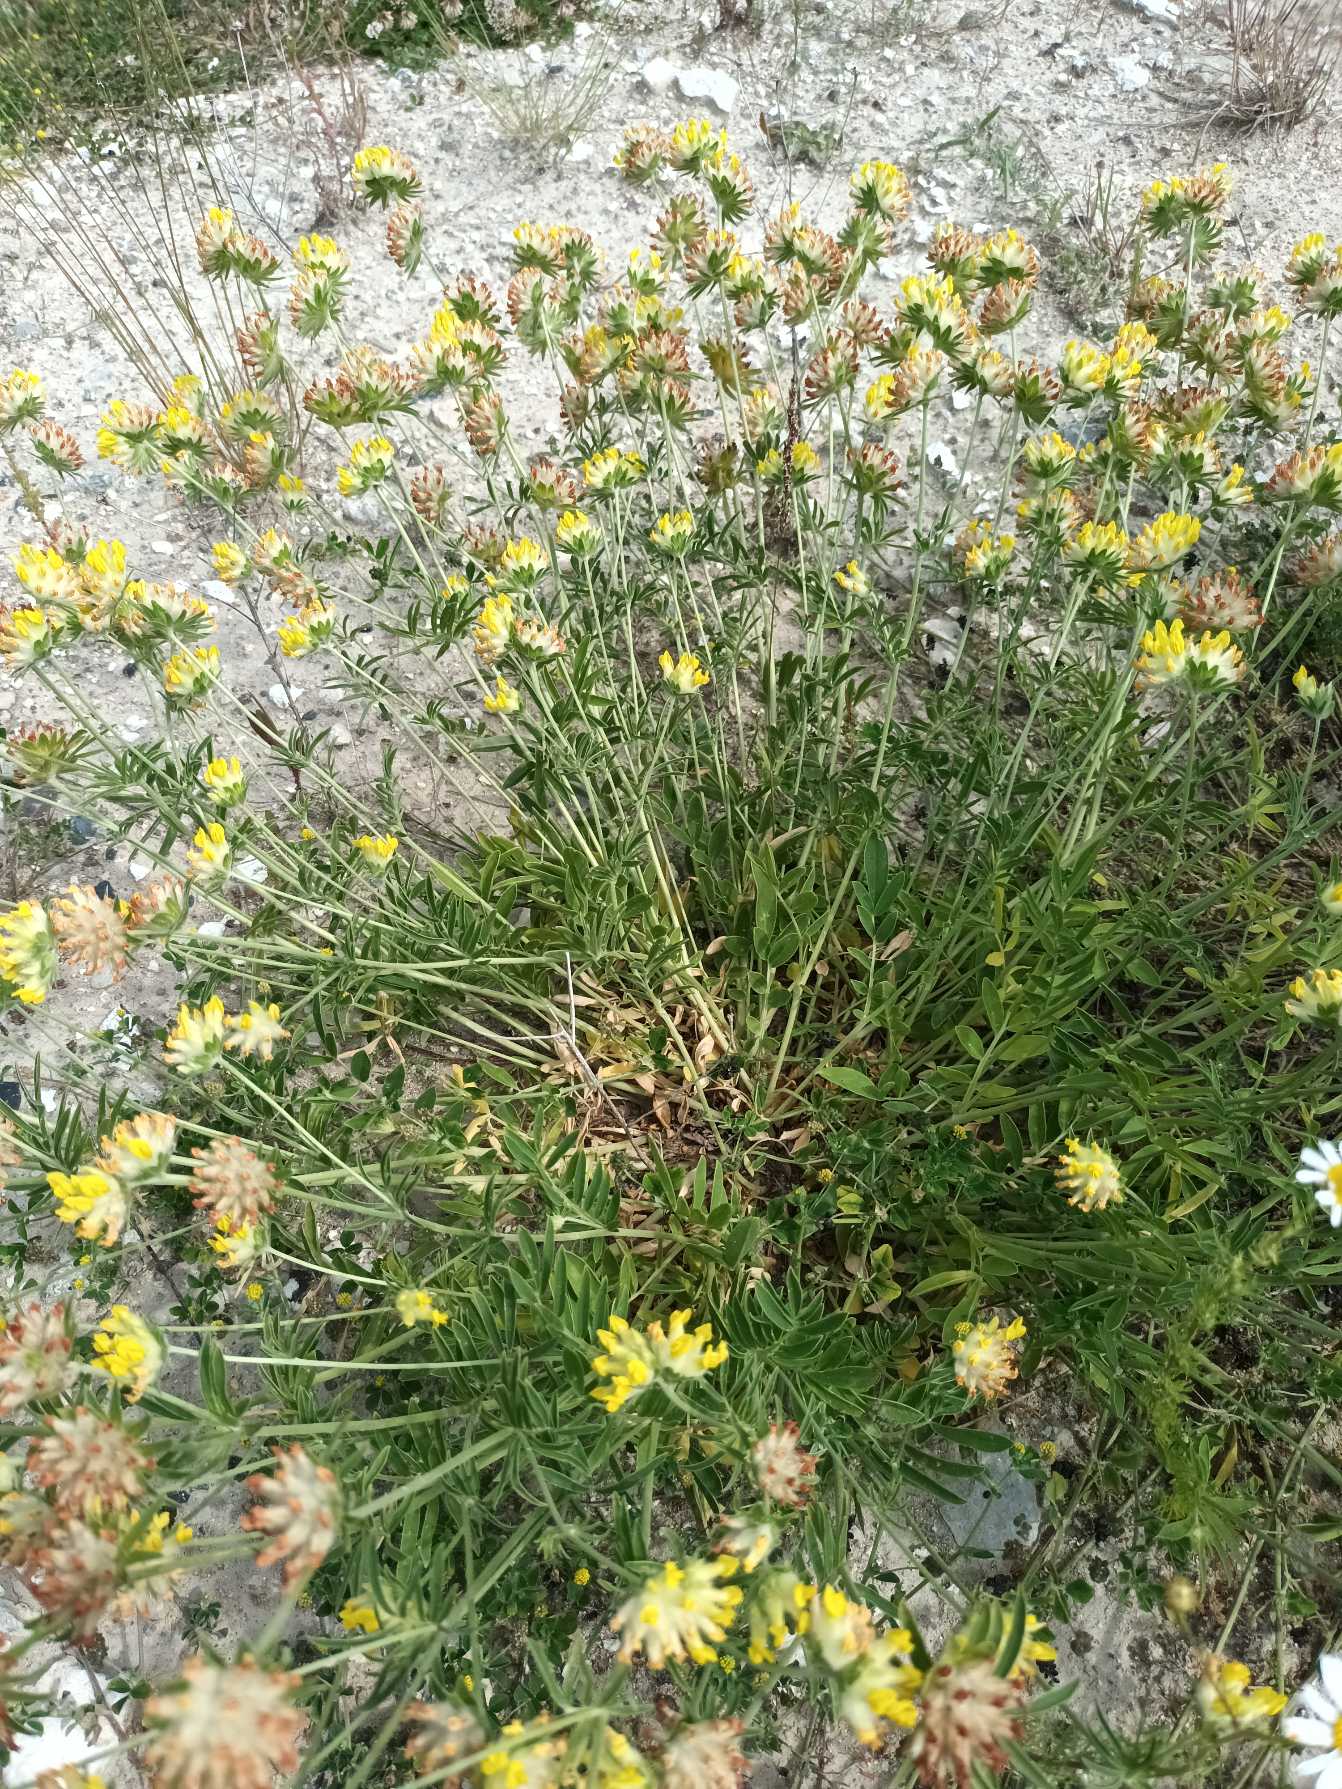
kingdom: Plantae
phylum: Tracheophyta
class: Magnoliopsida
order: Fabales
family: Fabaceae
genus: Anthyllis
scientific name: Anthyllis vulneraria
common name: Rundbælg
